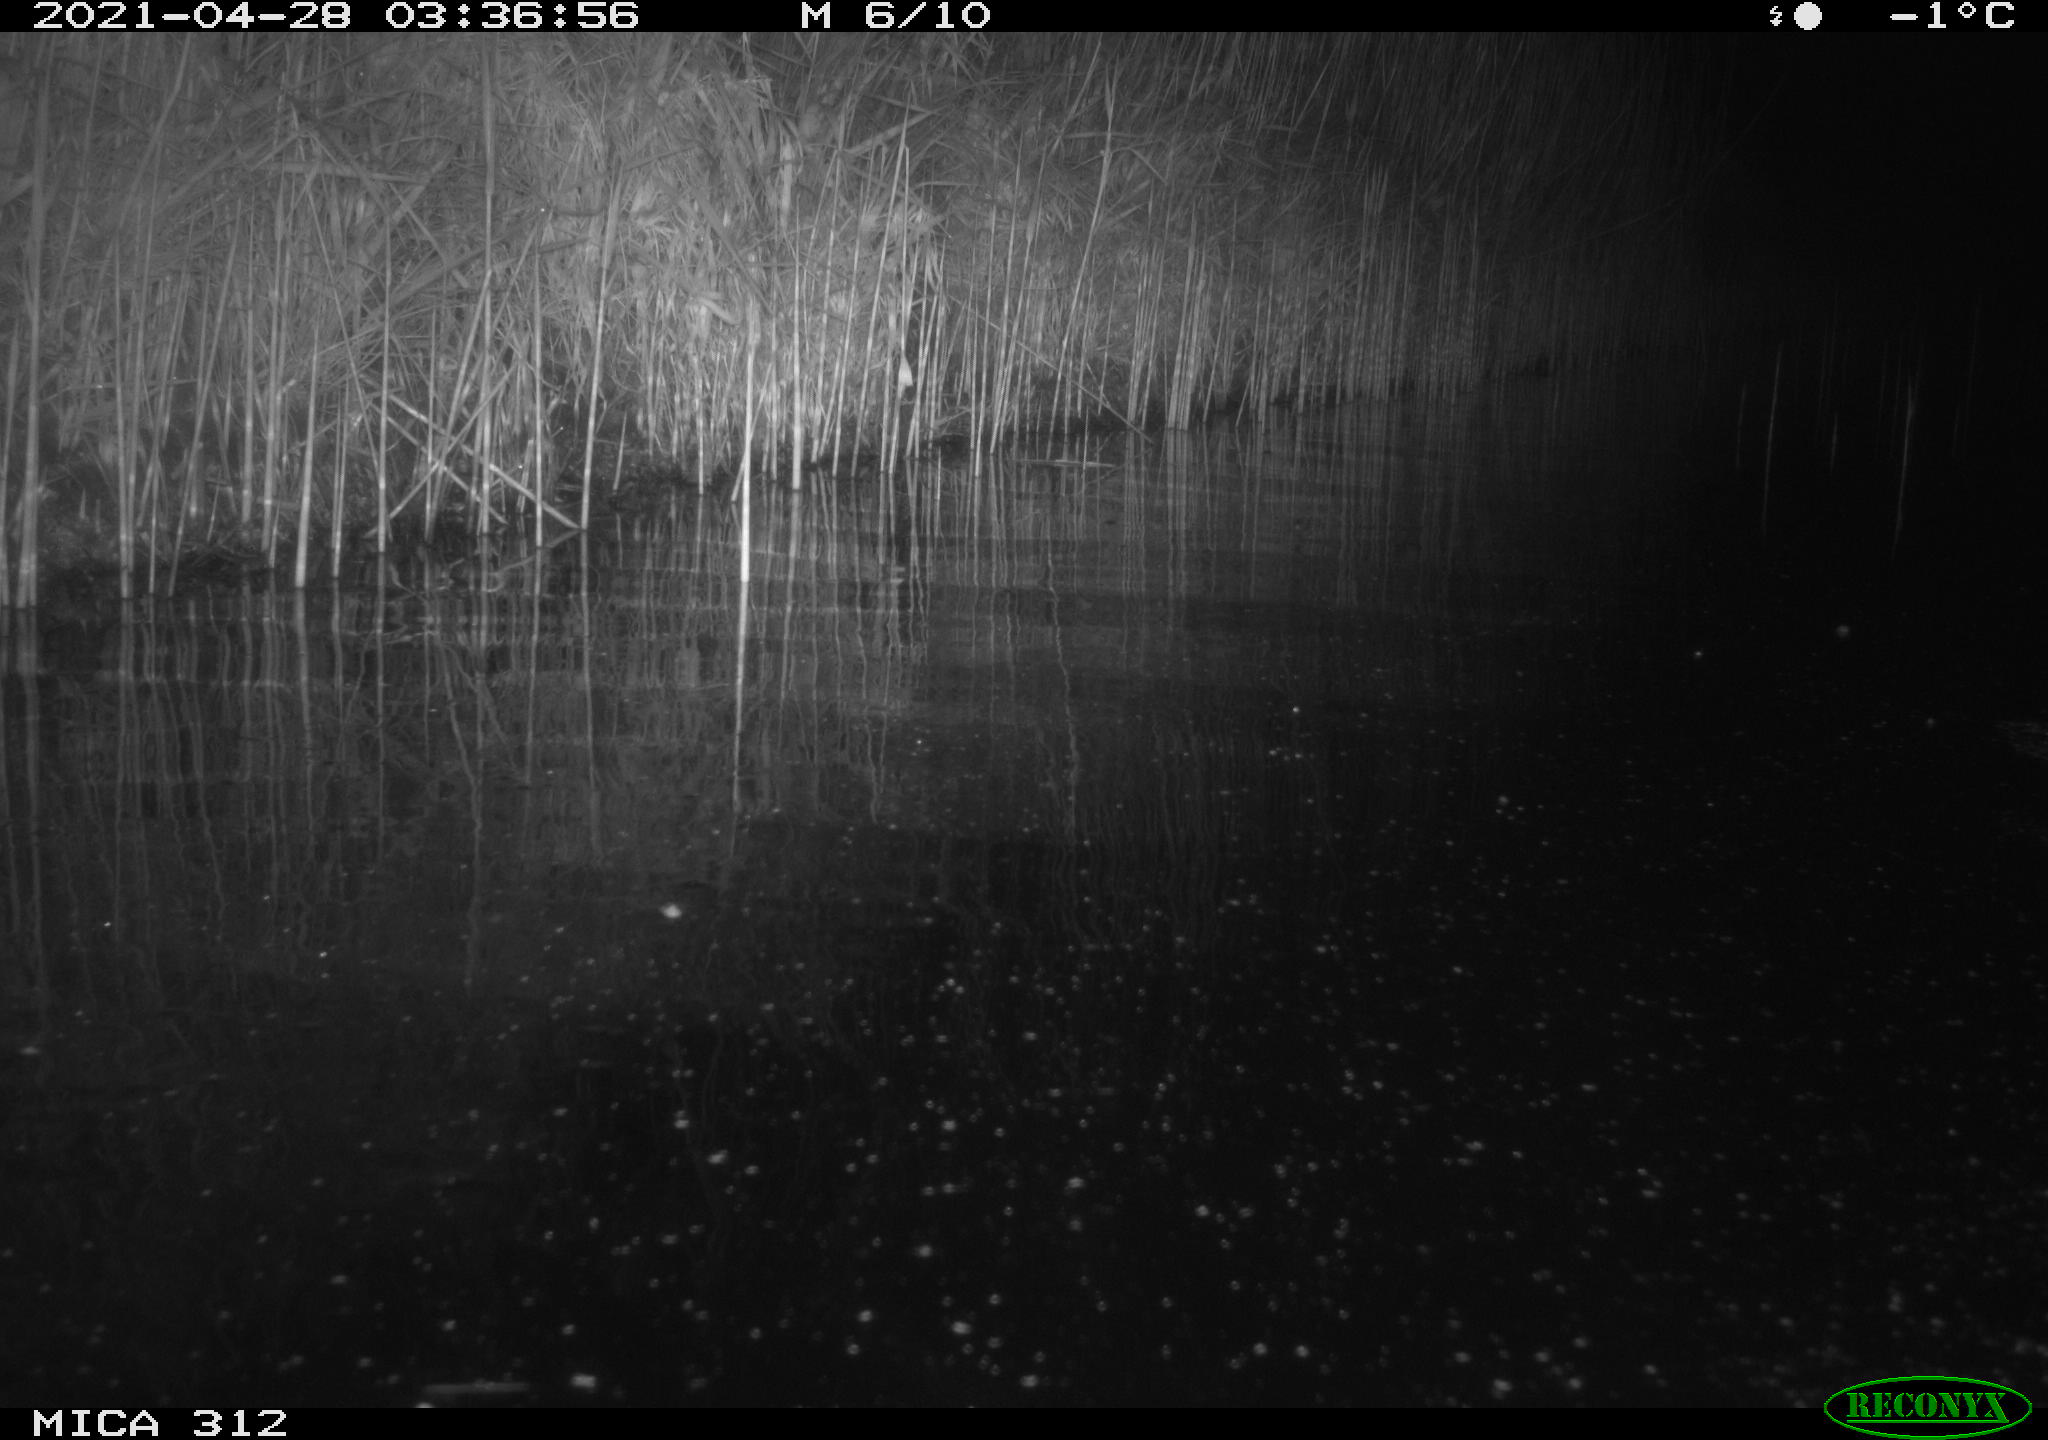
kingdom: Animalia
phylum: Chordata
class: Aves
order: Anseriformes
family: Anatidae
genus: Anas
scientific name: Anas platyrhynchos
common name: Mallard
